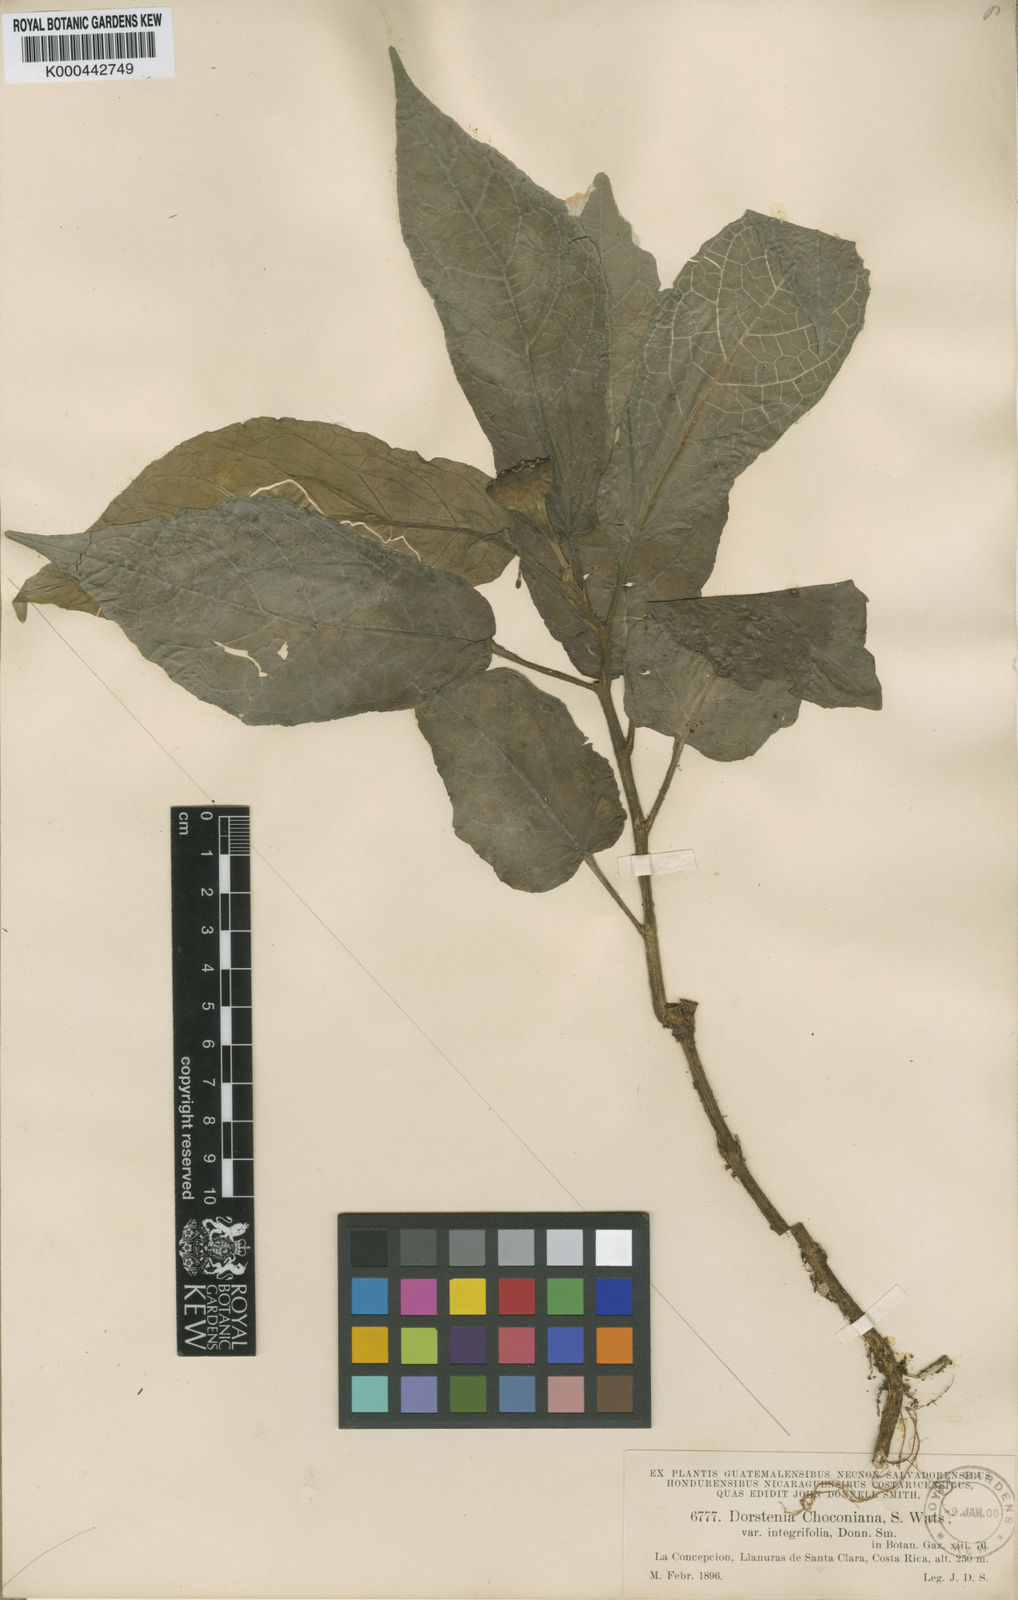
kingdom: Plantae
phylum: Tracheophyta
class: Magnoliopsida
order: Rosales
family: Moraceae
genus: Dorstenia
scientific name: Dorstenia choconiana
